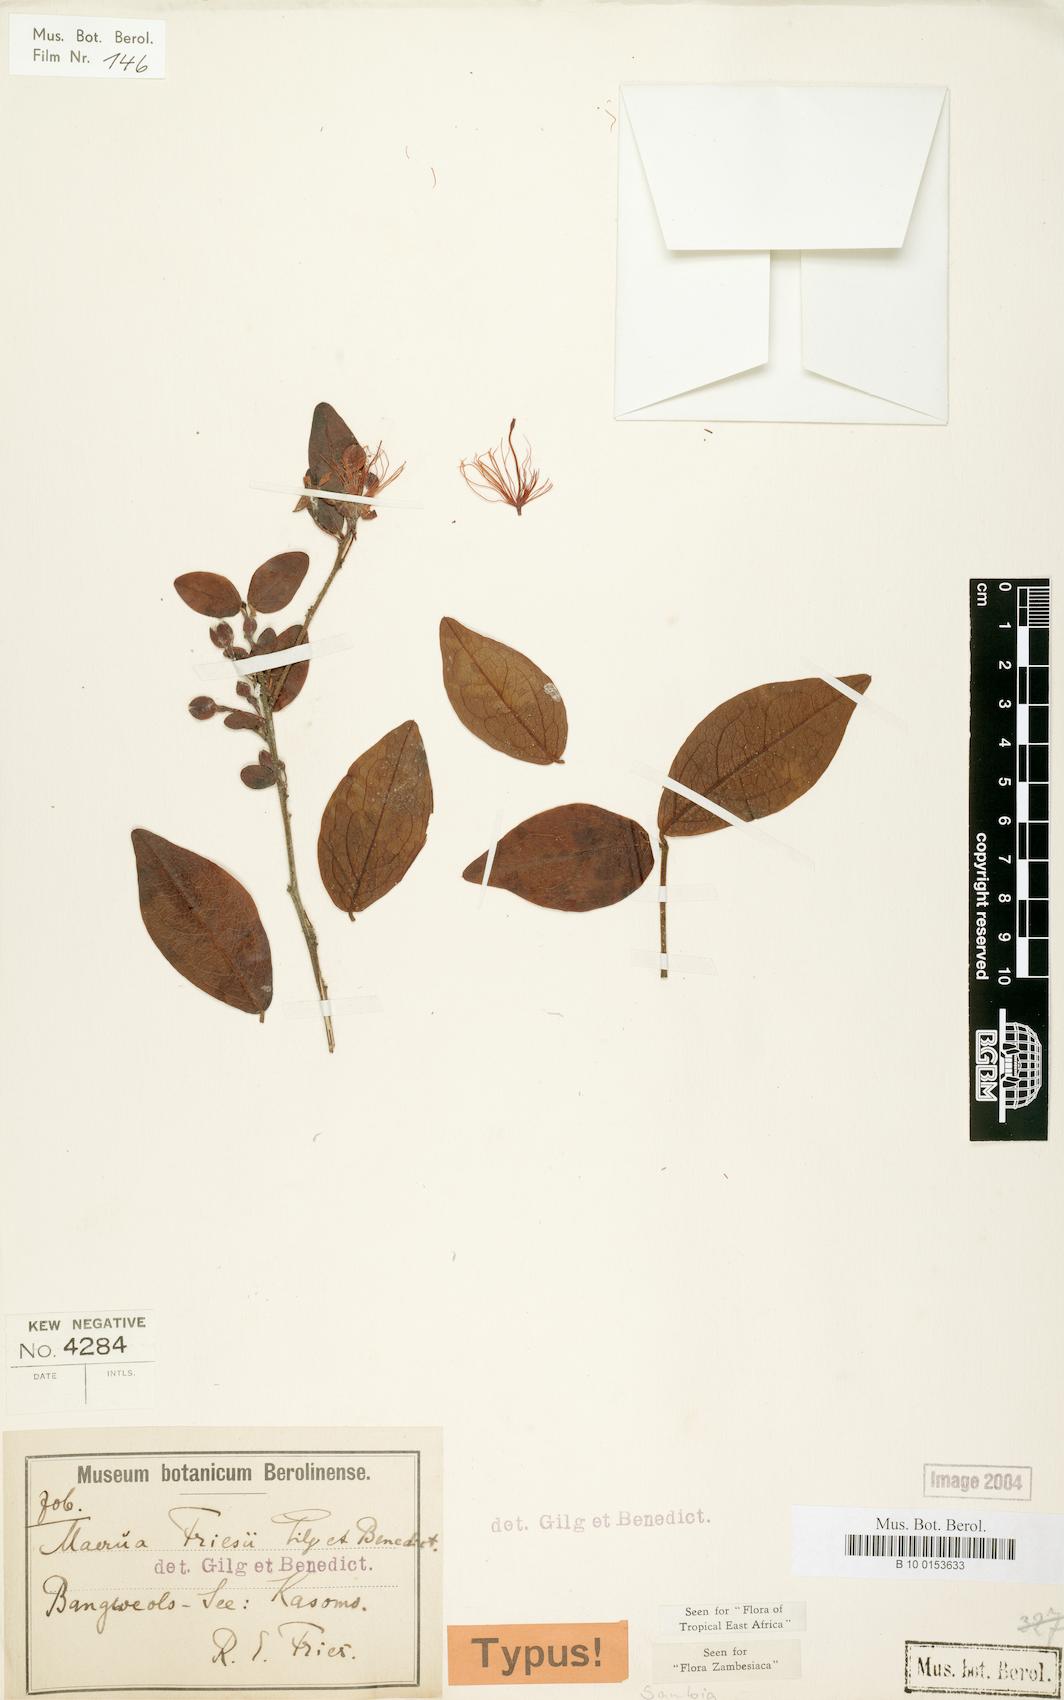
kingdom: Plantae
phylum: Tracheophyta
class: Magnoliopsida
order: Brassicales
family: Capparaceae
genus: Maerua
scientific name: Maerua friesii
